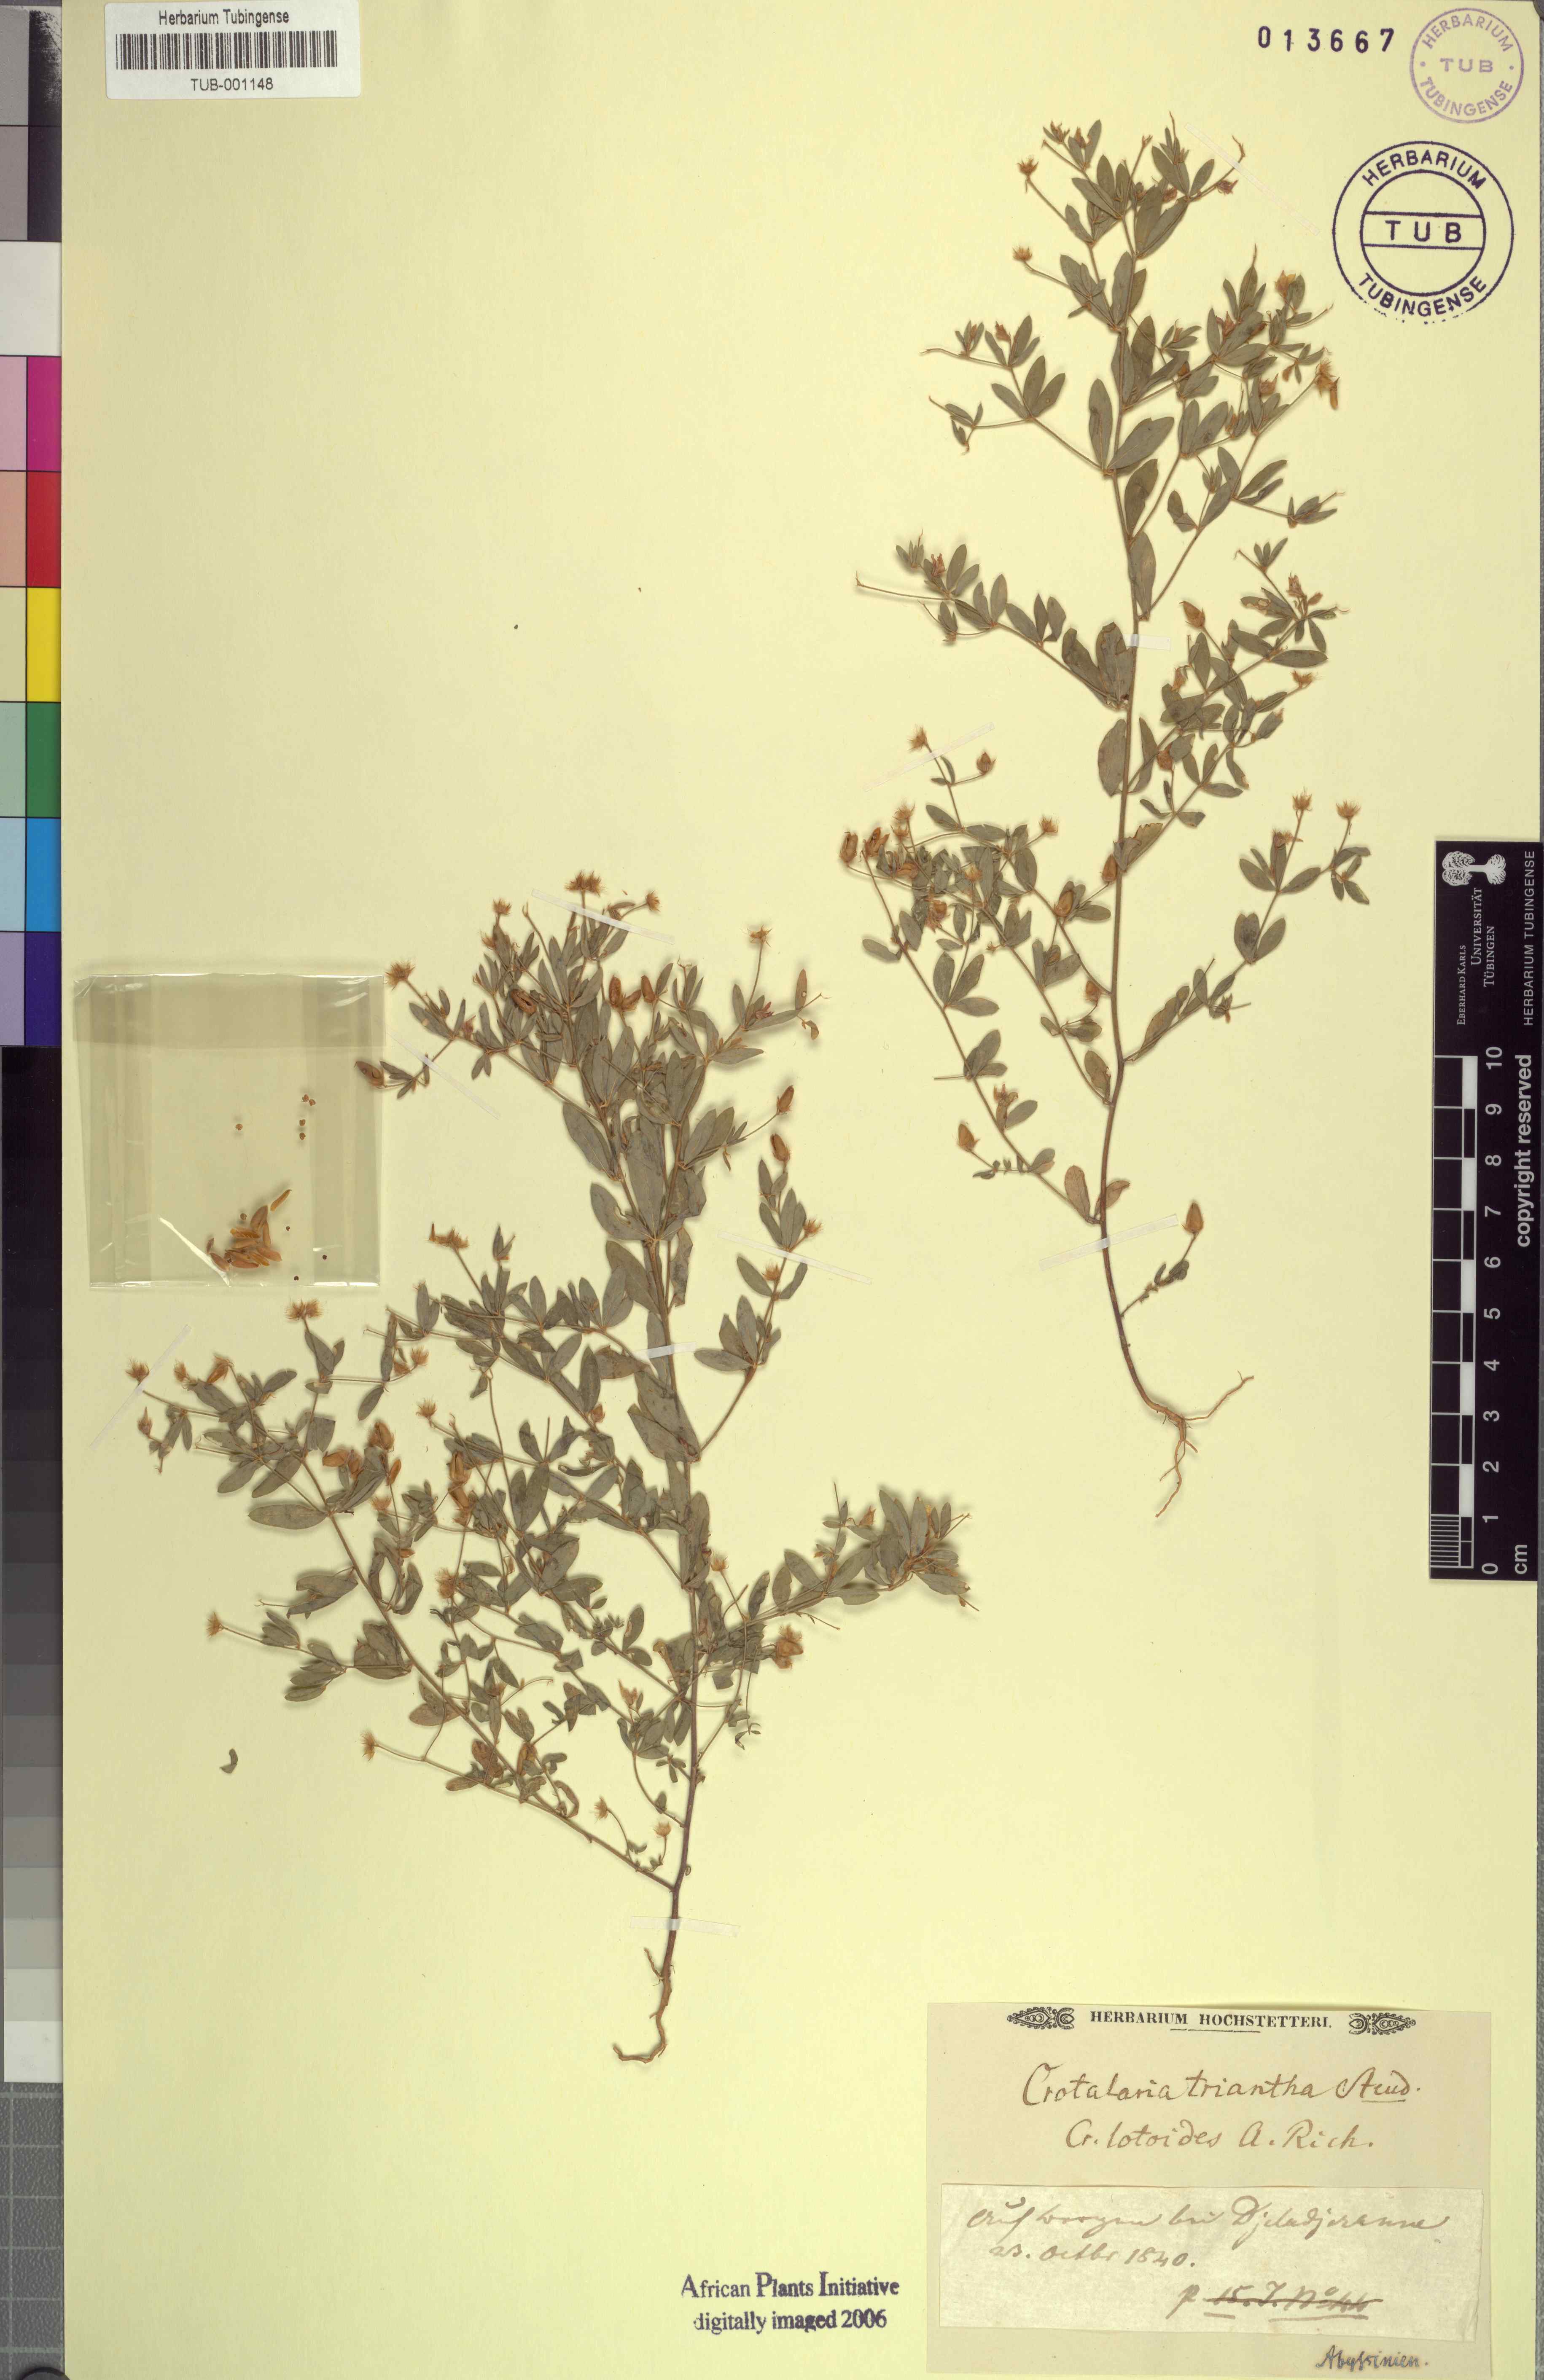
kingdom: Plantae
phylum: Tracheophyta
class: Magnoliopsida
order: Fabales
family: Fabaceae
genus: Crotalaria
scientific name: Crotalaria microcarpa
